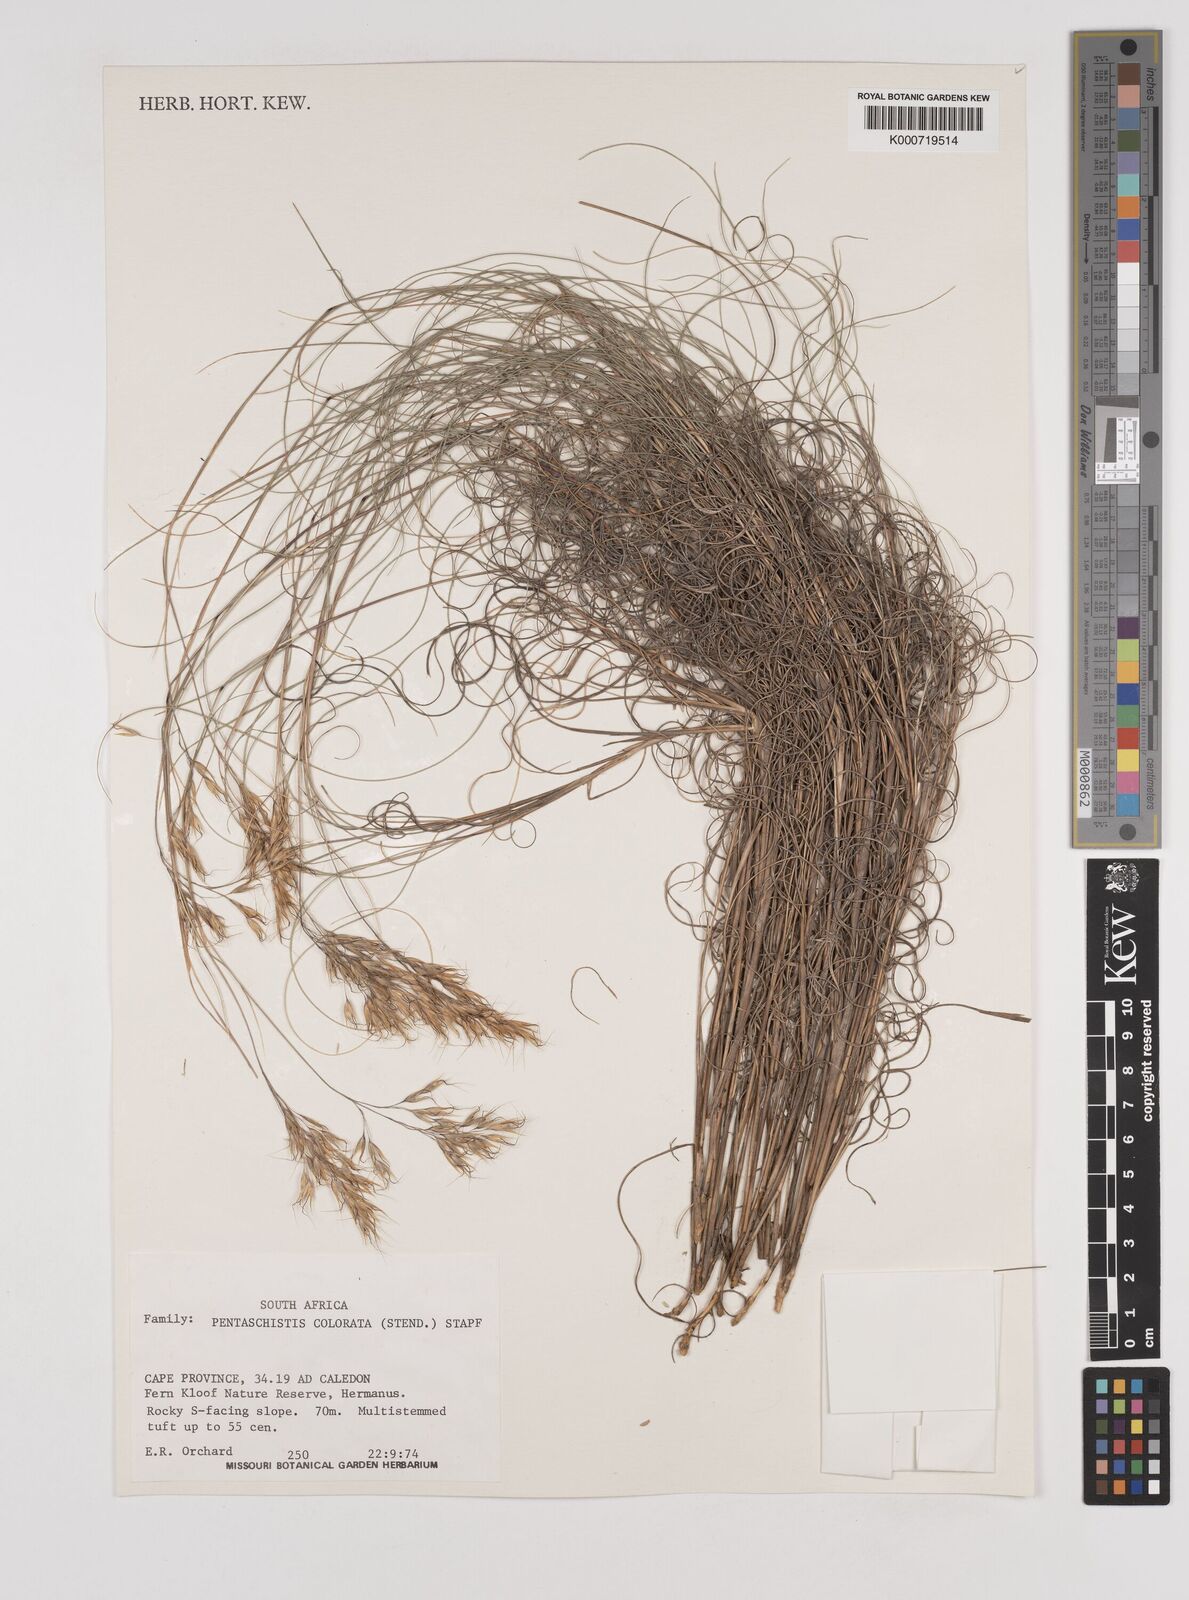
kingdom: Plantae
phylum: Tracheophyta
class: Liliopsida
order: Poales
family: Poaceae
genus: Pentameris
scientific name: Pentameris colorata
